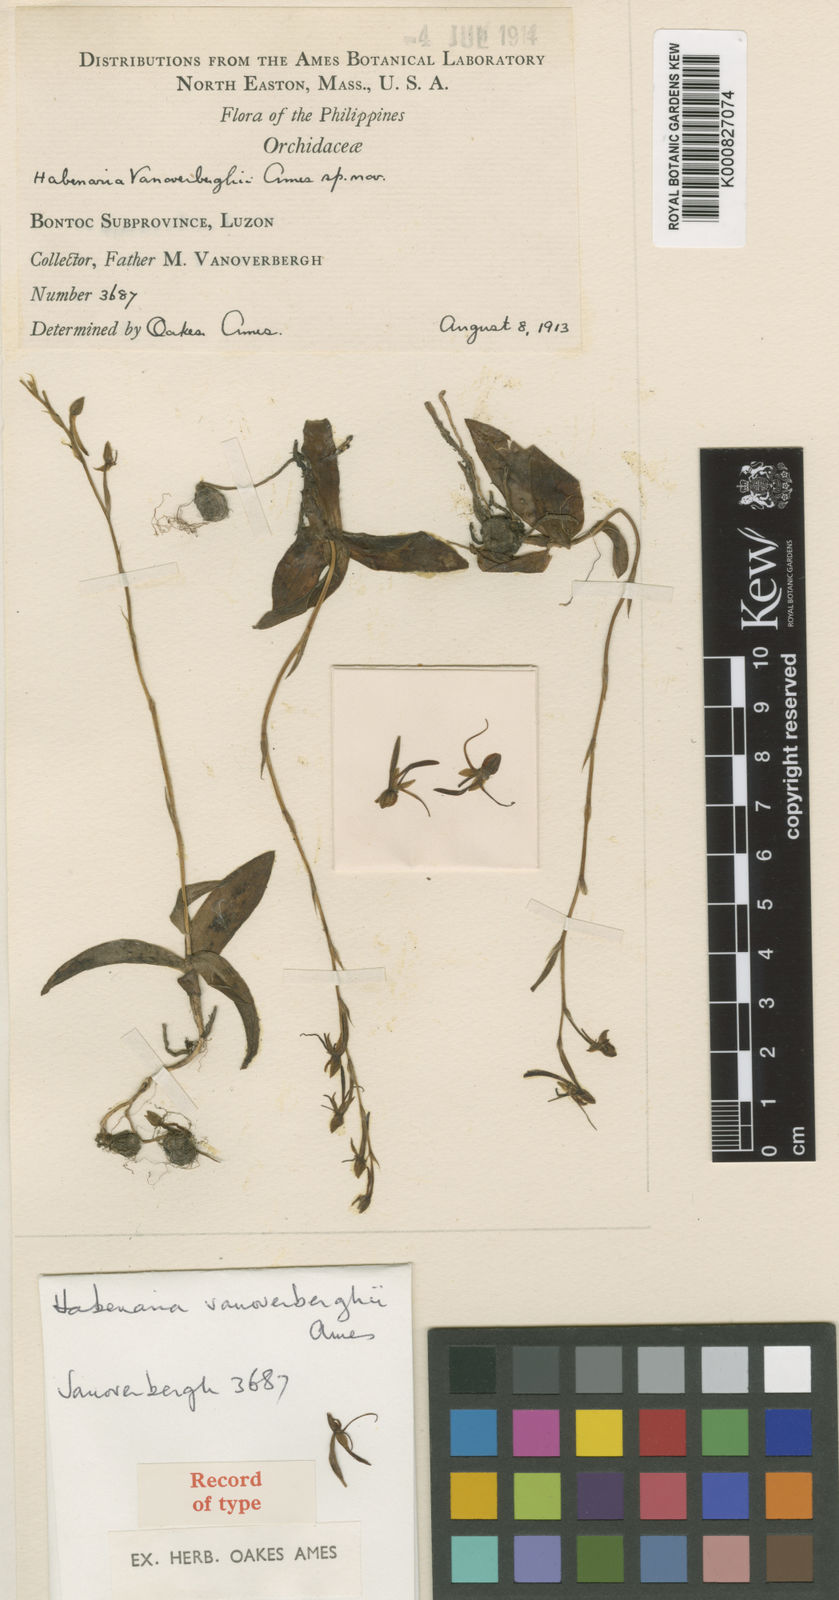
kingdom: Plantae
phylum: Tracheophyta
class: Liliopsida
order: Asparagales
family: Orchidaceae
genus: Habenaria
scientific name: Habenaria vanoverberghii
